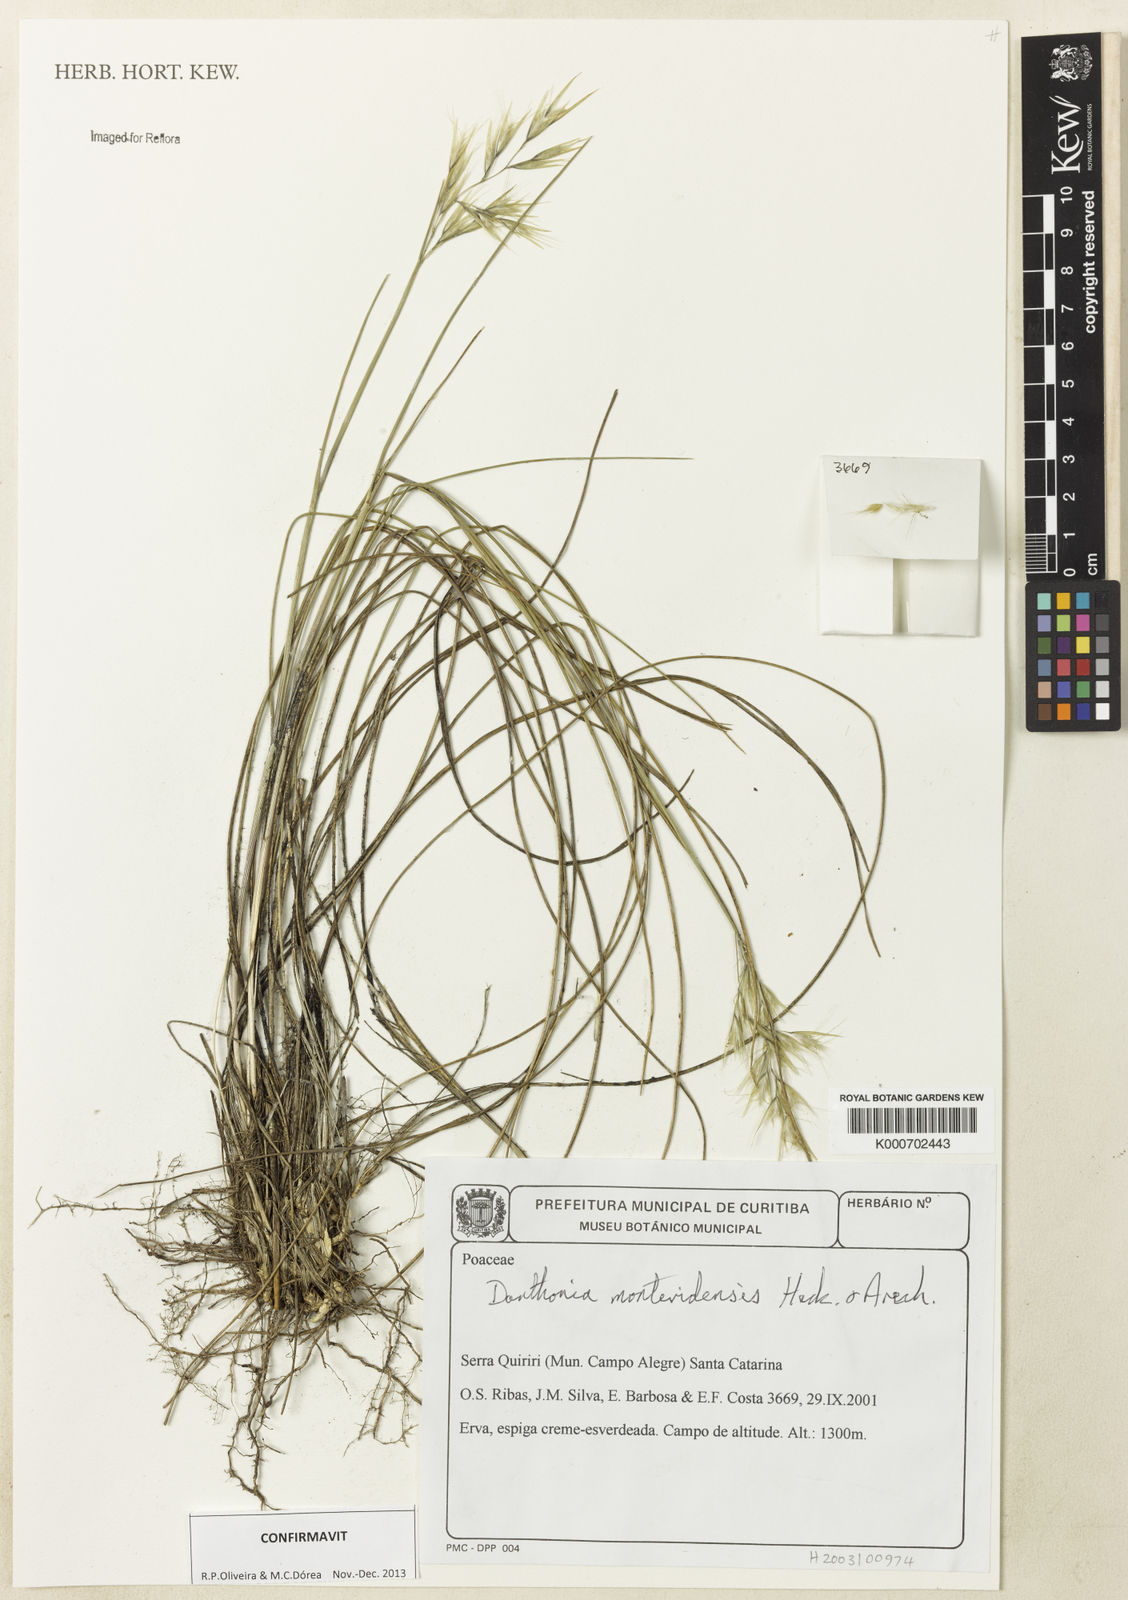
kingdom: Plantae
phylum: Tracheophyta
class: Liliopsida
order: Poales
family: Poaceae
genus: Danthonia
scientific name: Danthonia montevidensis
